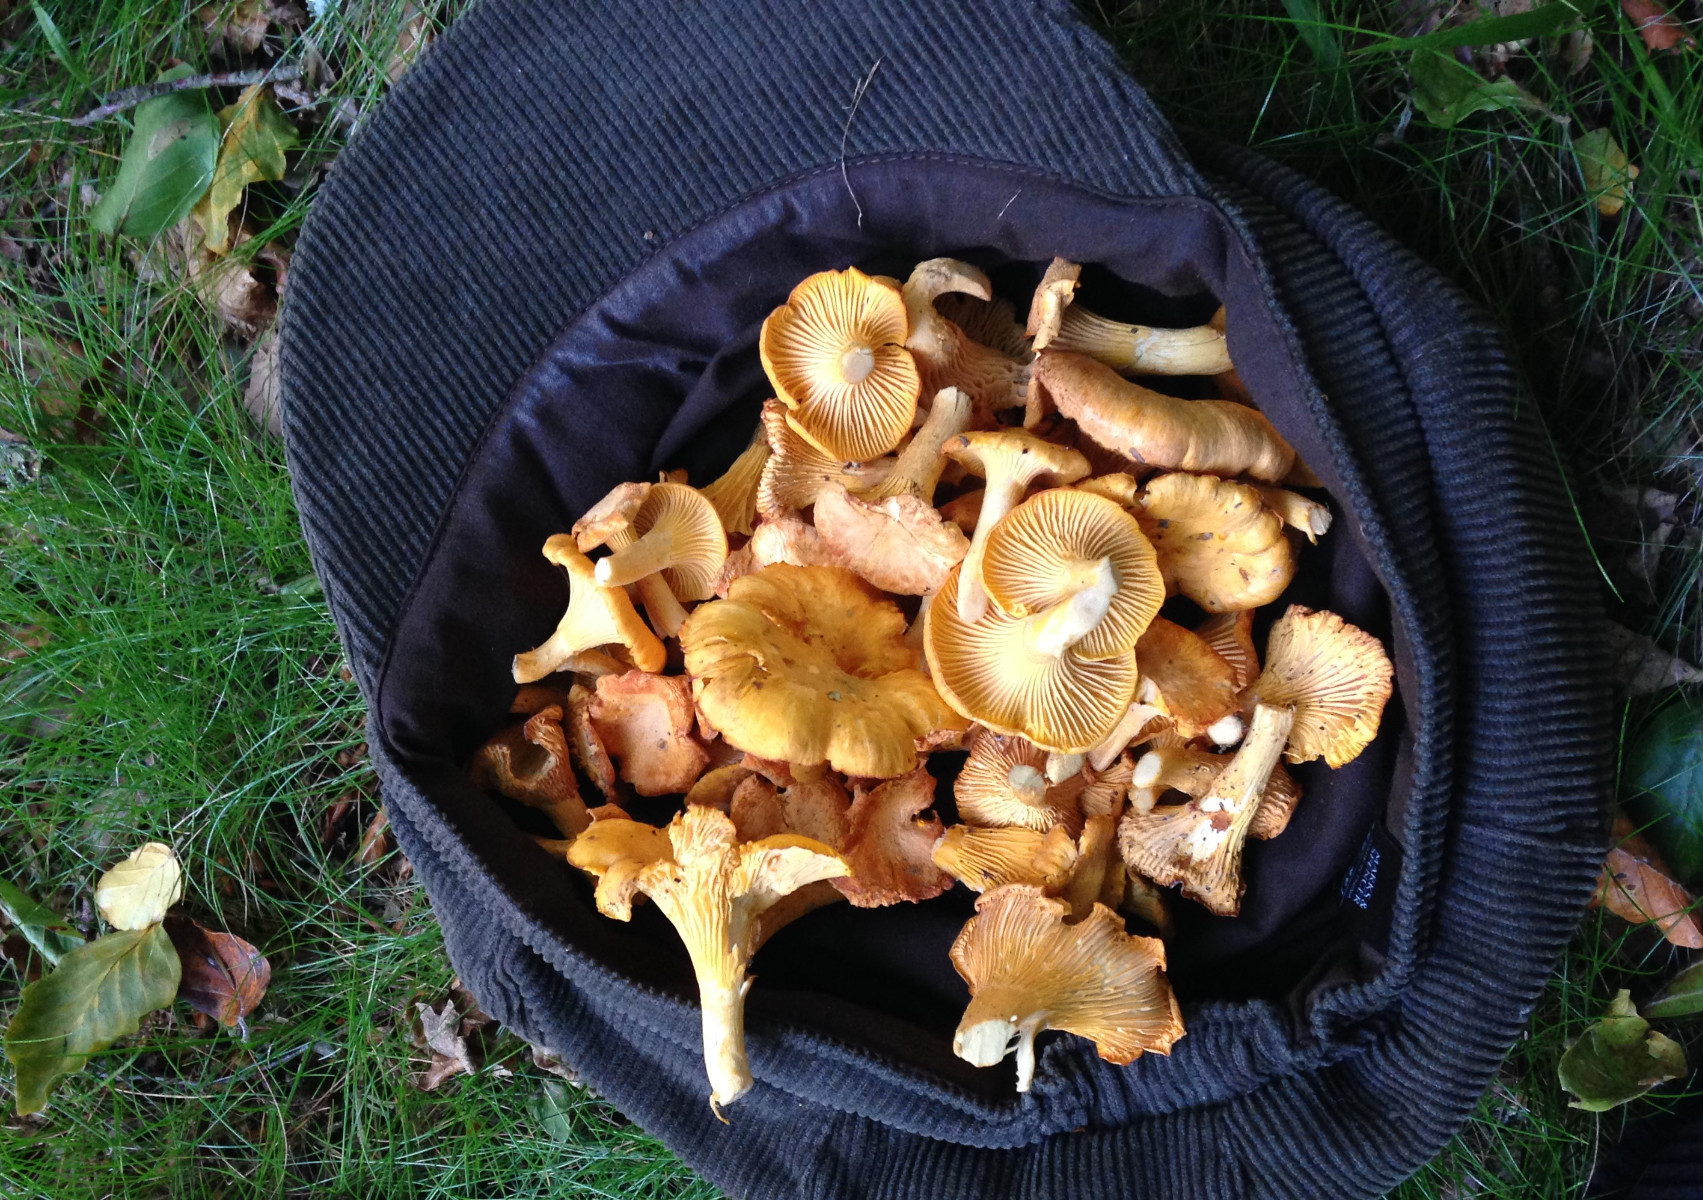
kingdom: Fungi
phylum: Basidiomycota
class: Agaricomycetes
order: Cantharellales
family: Hydnaceae
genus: Cantharellus
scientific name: Cantharellus cibarius
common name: almindelig kantarel
